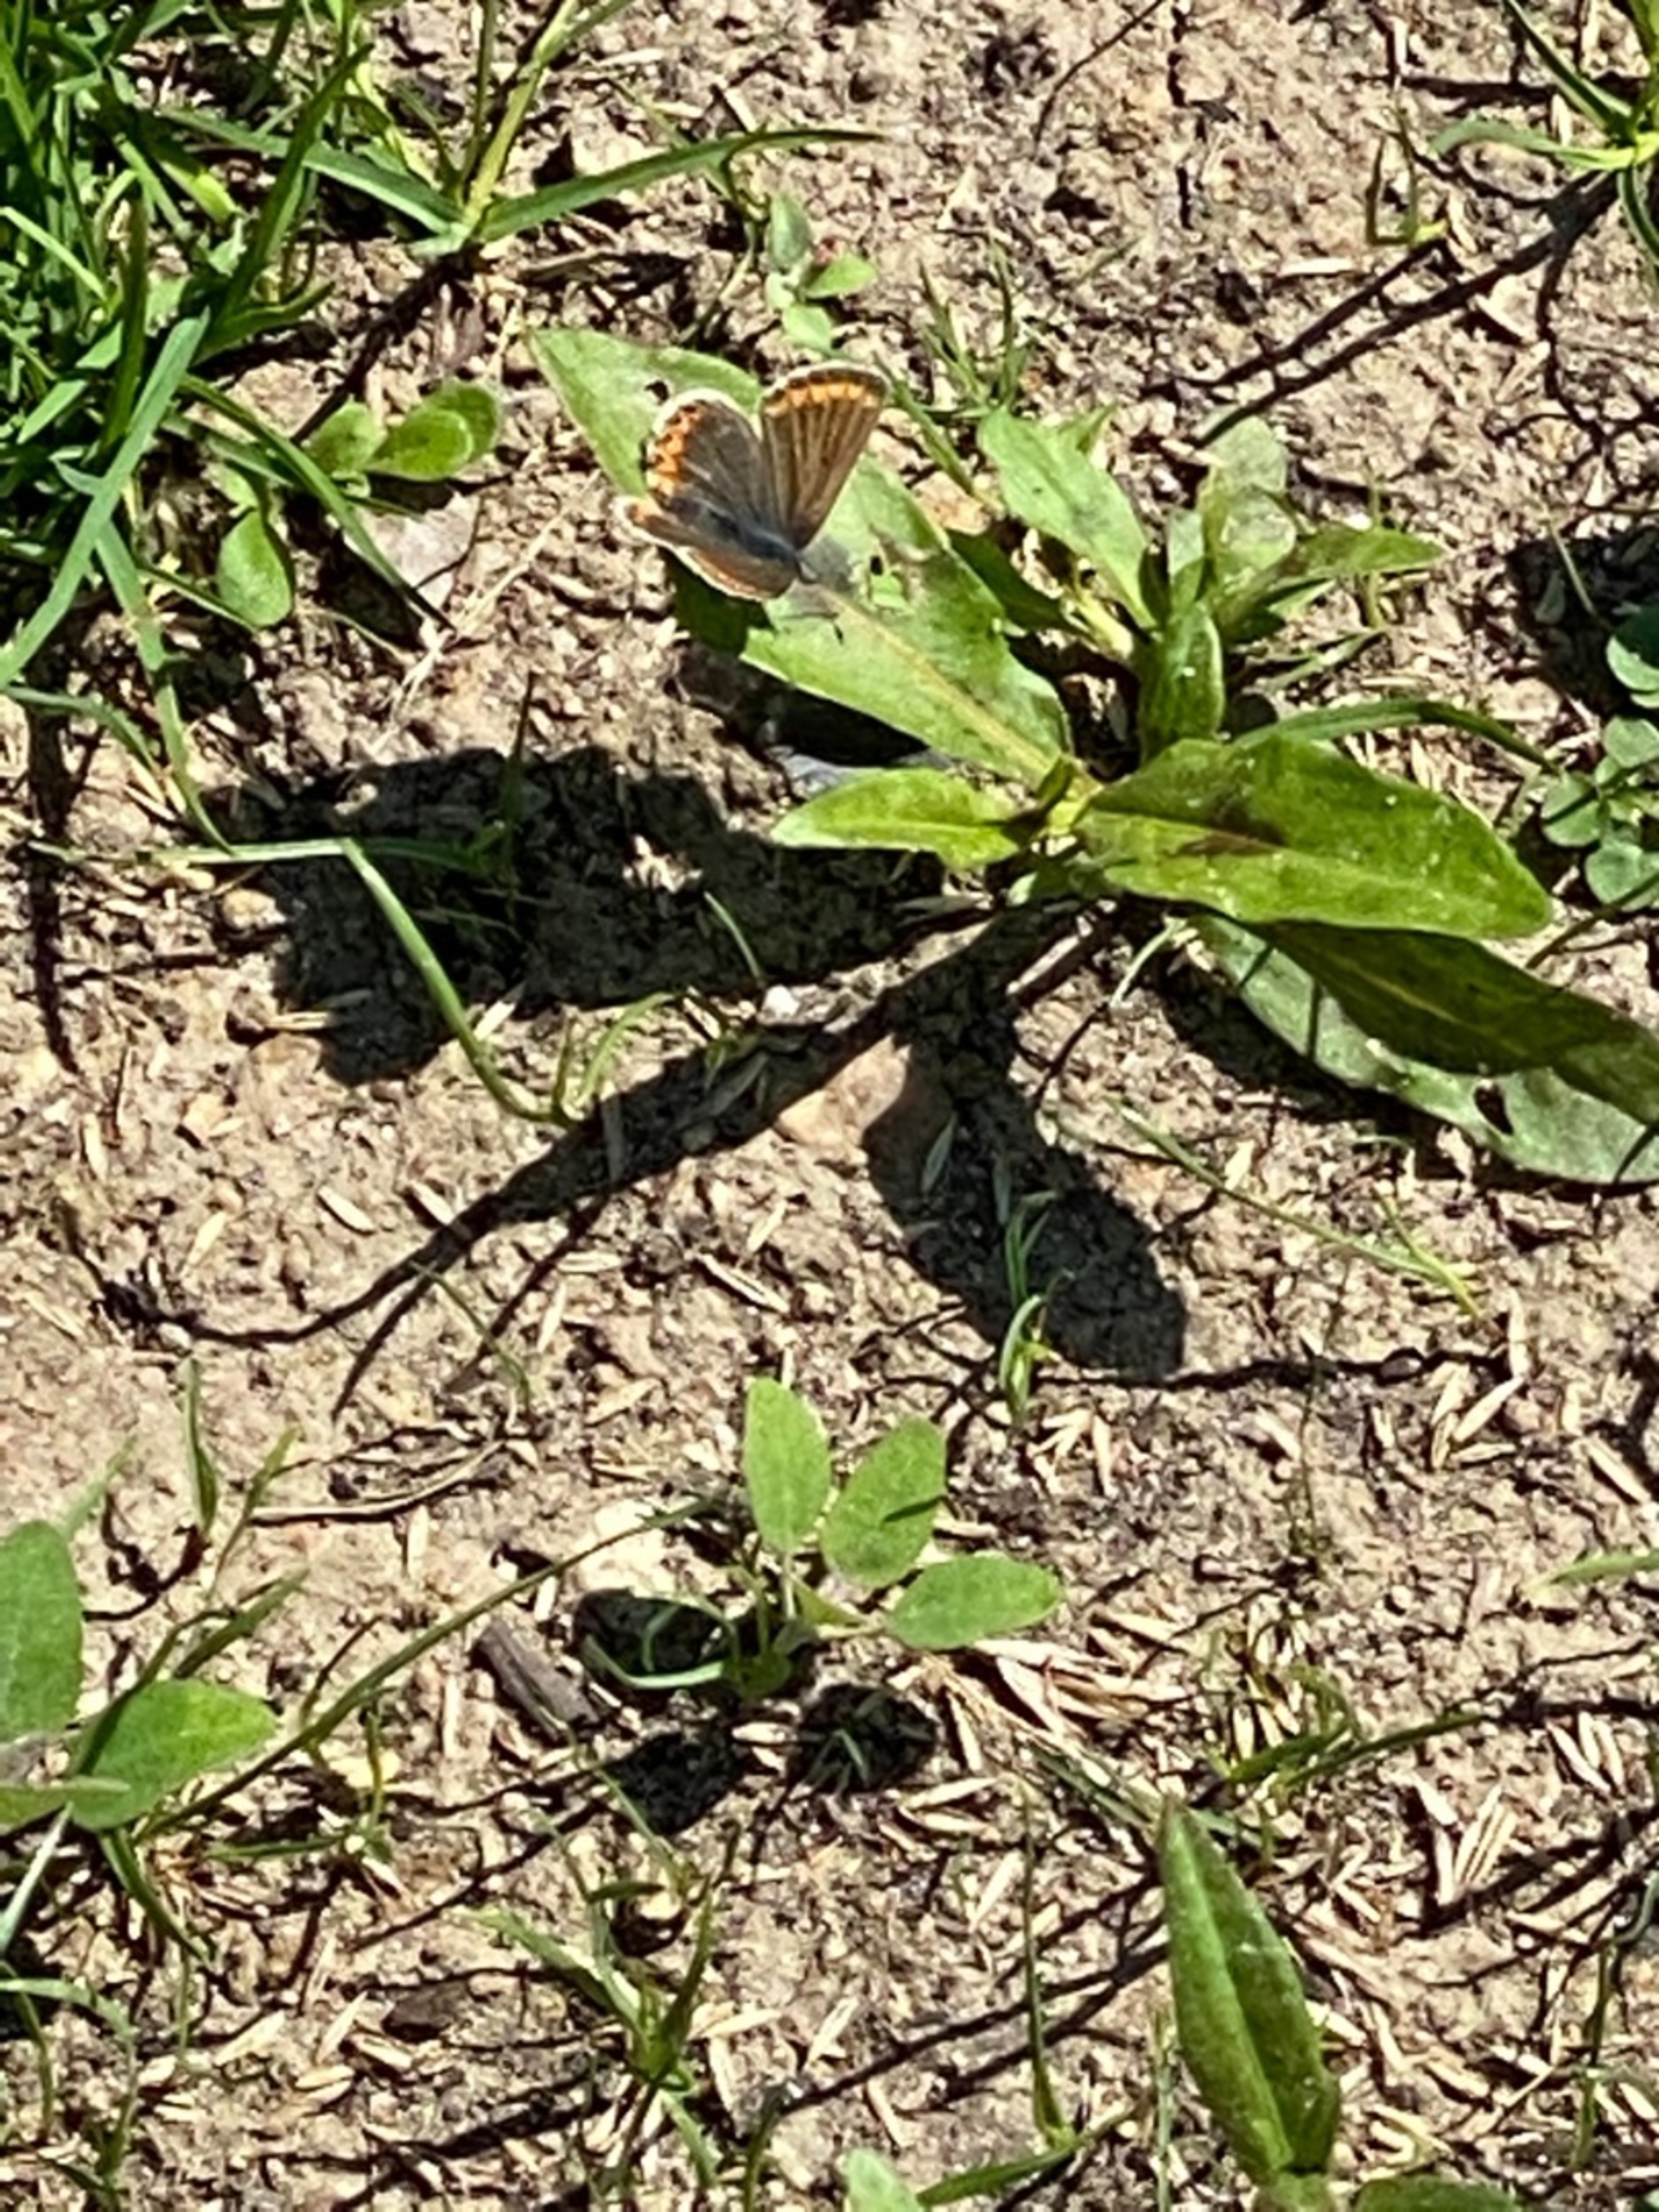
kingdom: Animalia
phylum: Arthropoda
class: Insecta
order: Lepidoptera
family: Lycaenidae
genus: Aricia
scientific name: Aricia agestis
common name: Rødplettet blåfugl
